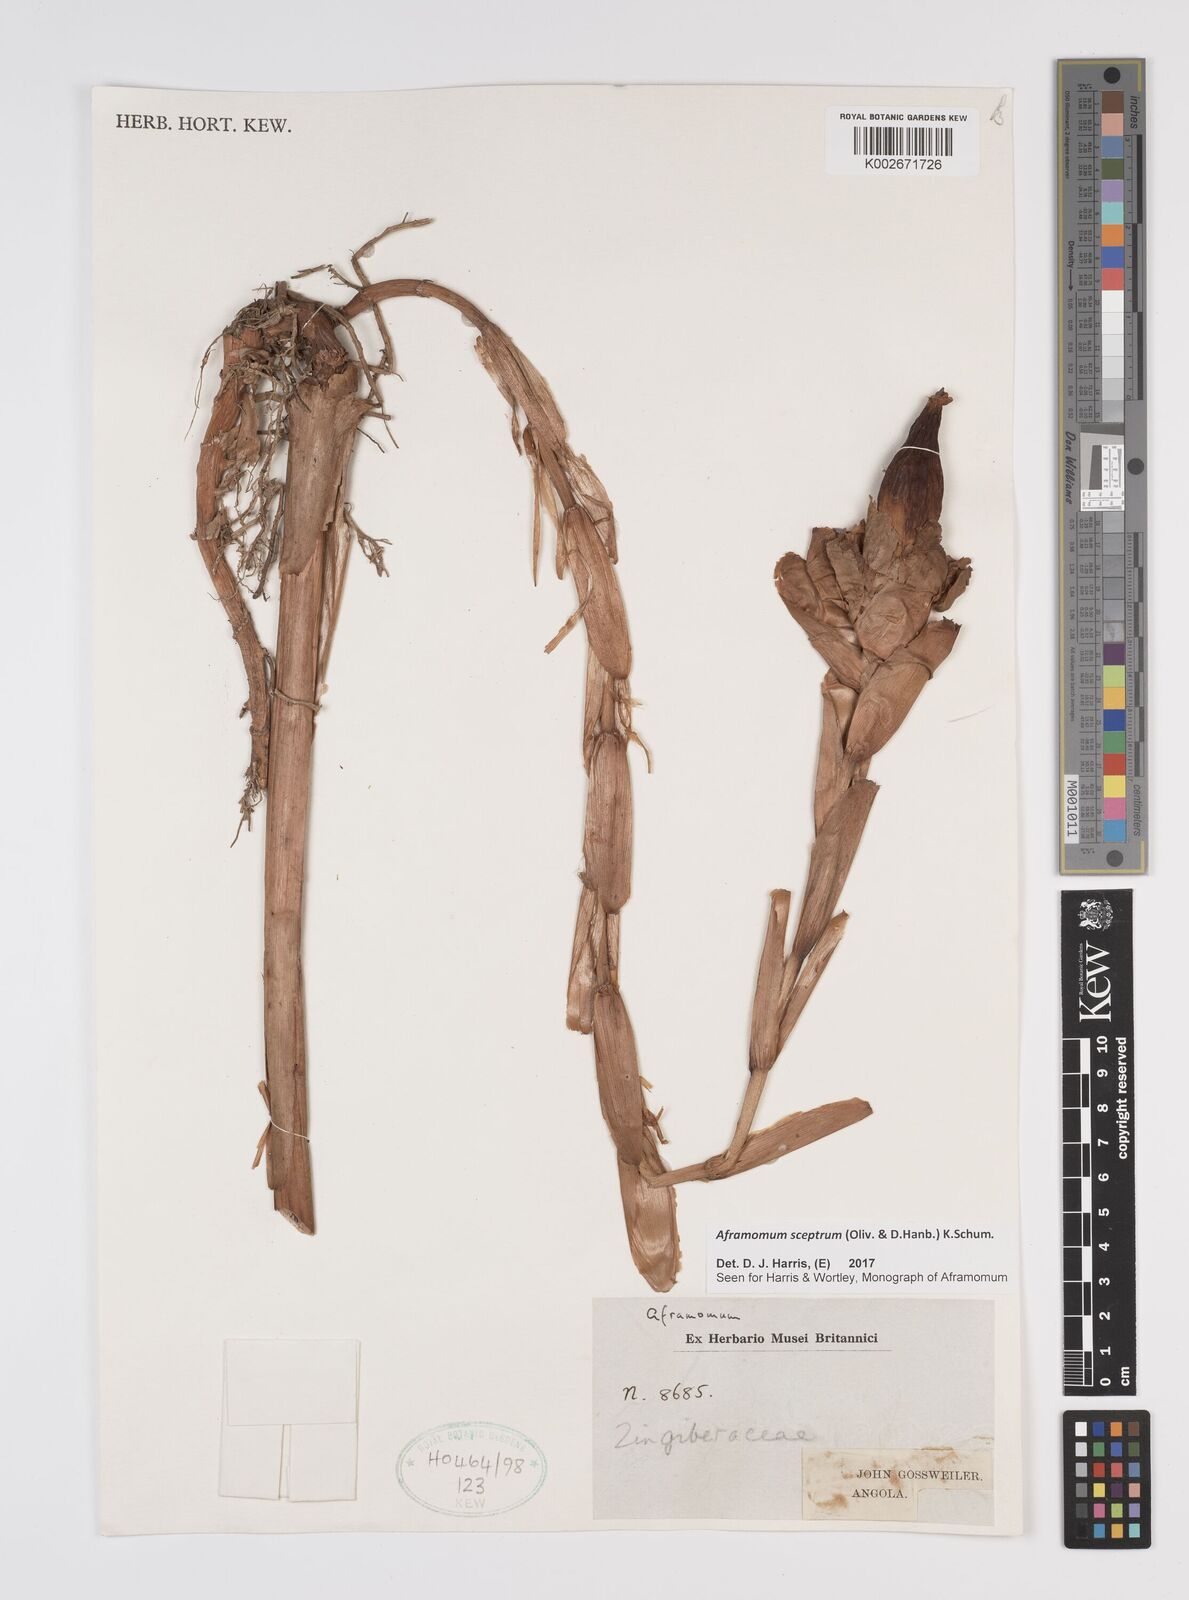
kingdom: Plantae
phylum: Tracheophyta
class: Liliopsida
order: Zingiberales
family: Zingiberaceae
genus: Aframomum
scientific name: Aframomum cereum
